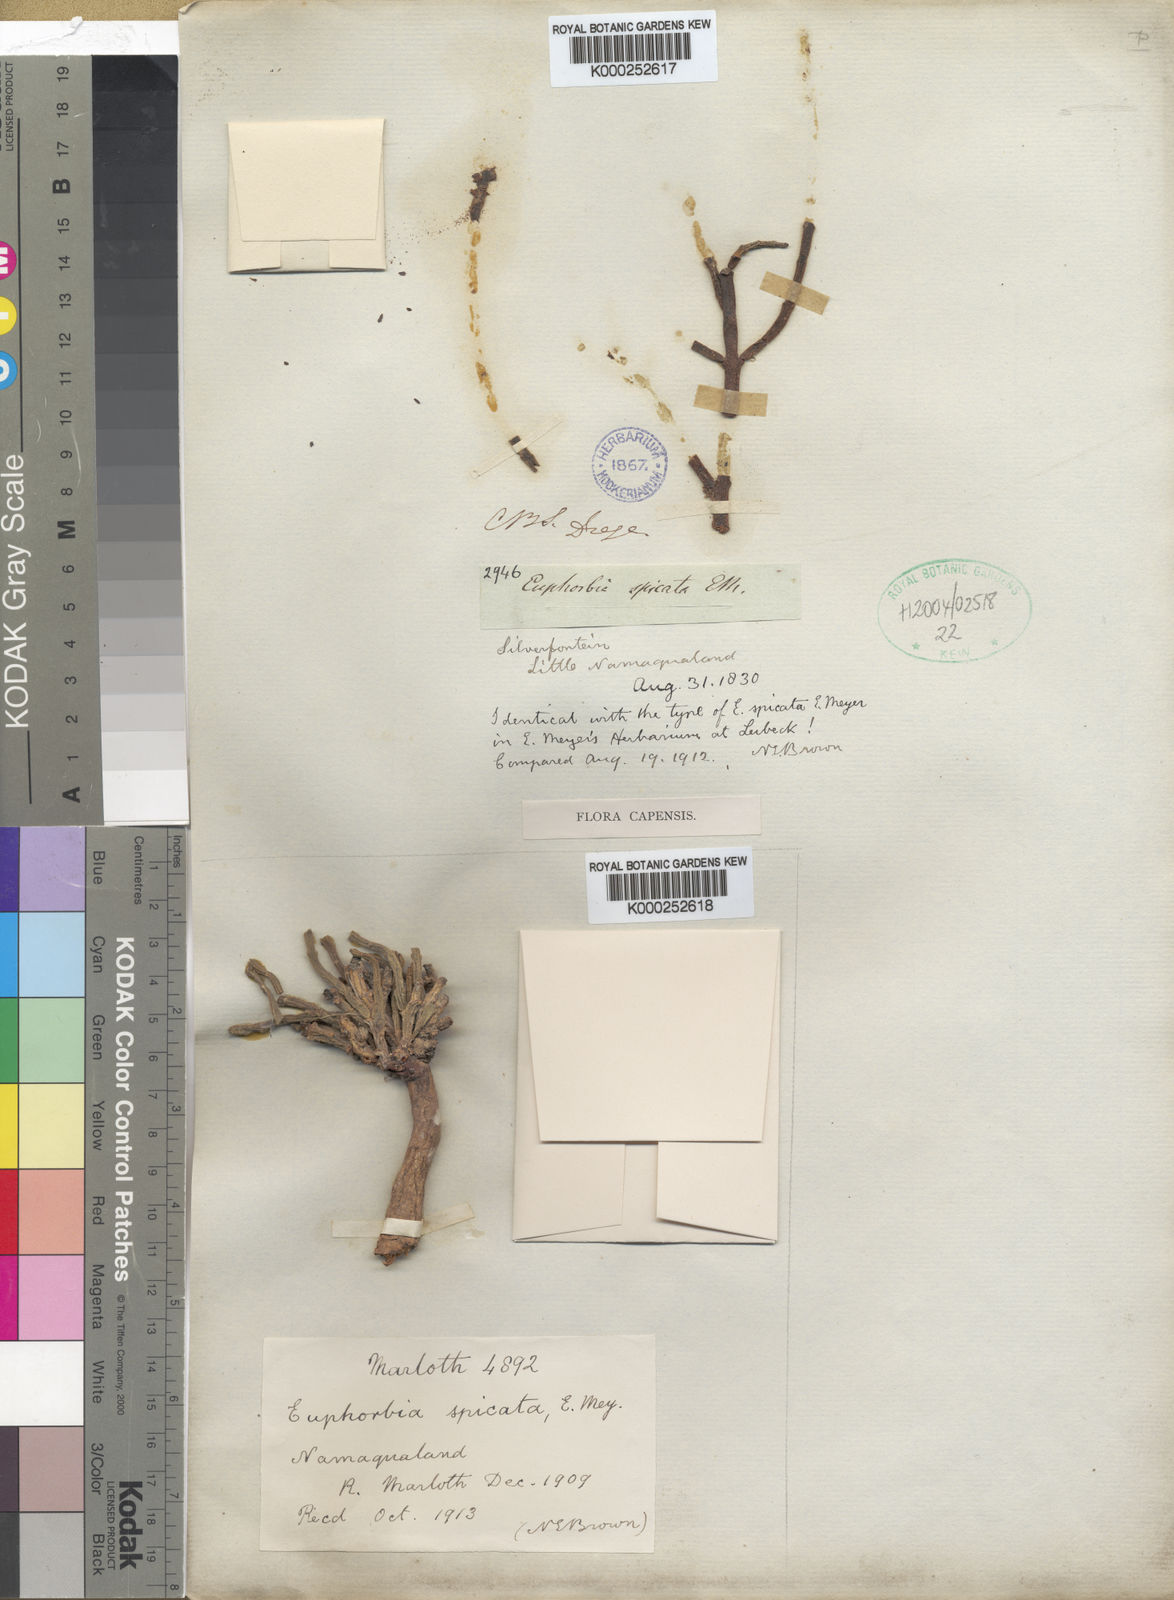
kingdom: Plantae
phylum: Tracheophyta
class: Magnoliopsida
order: Malpighiales
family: Euphorbiaceae
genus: Euphorbia
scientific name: Euphorbia muricata
